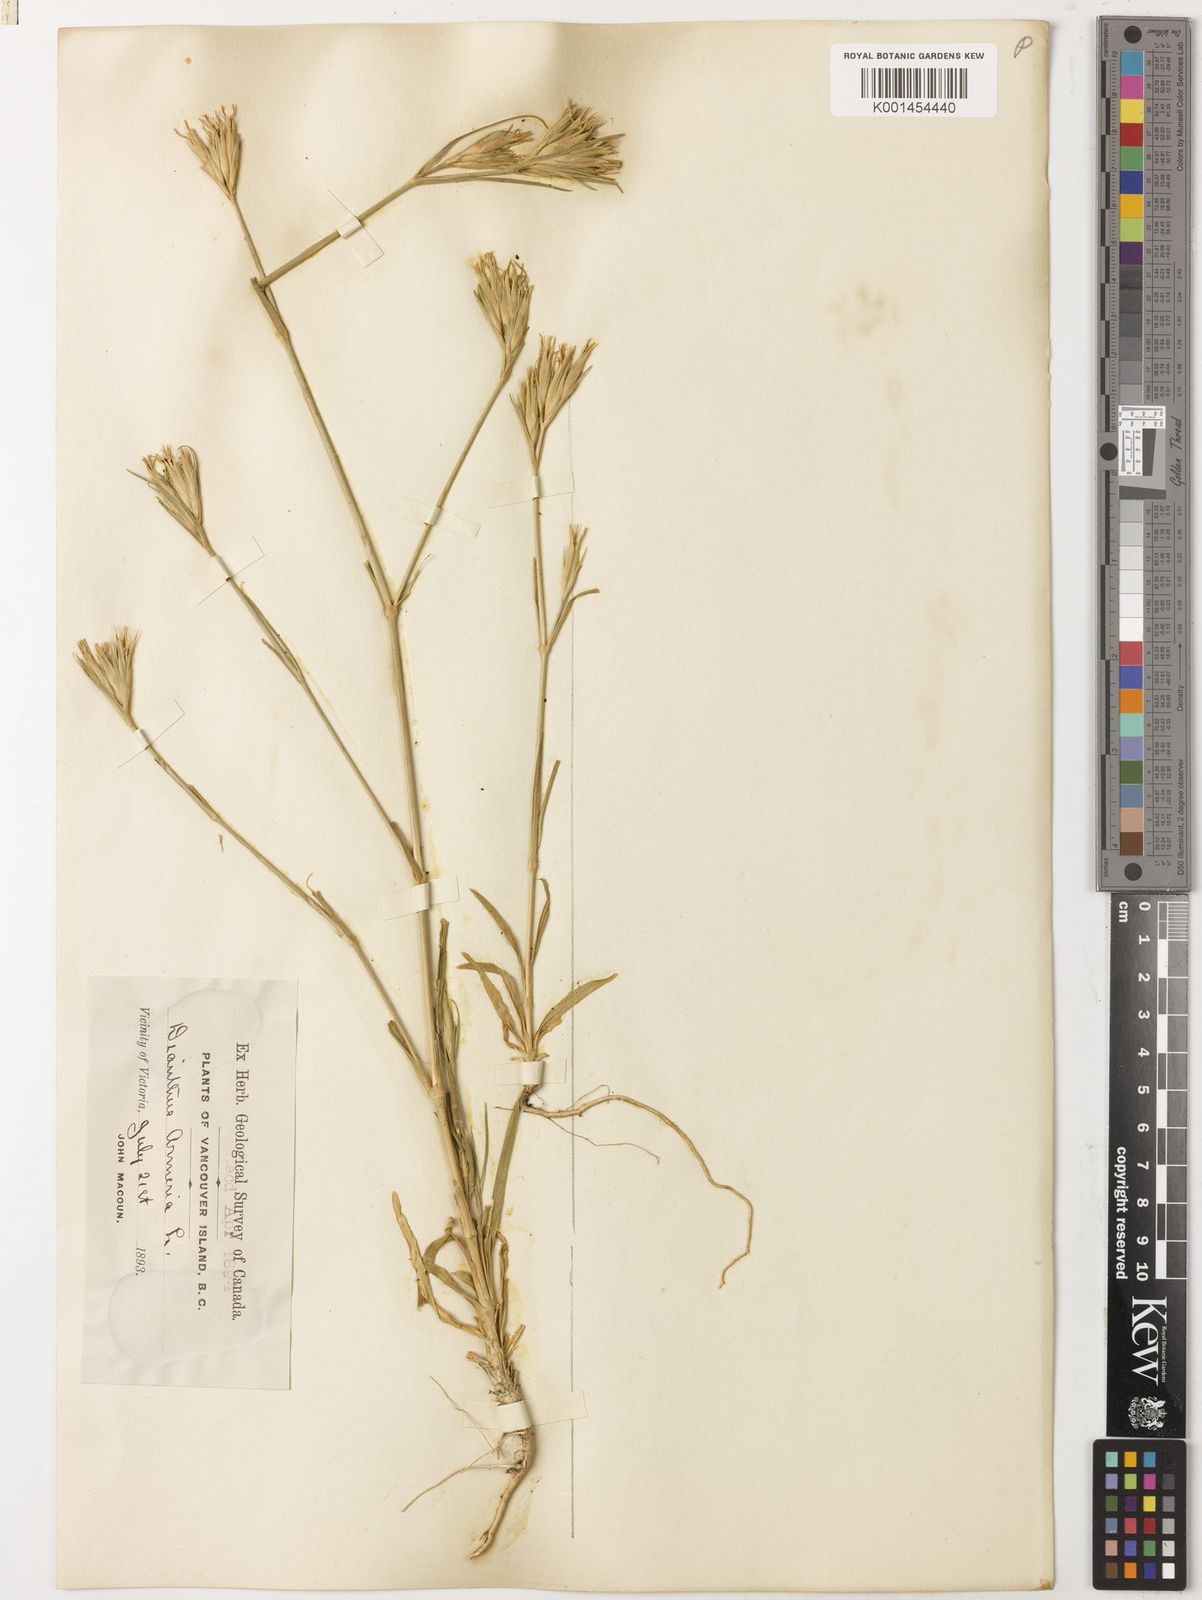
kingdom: Plantae
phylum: Tracheophyta
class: Magnoliopsida
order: Caryophyllales
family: Caryophyllaceae
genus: Dianthus
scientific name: Dianthus armeria
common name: Deptford pink
